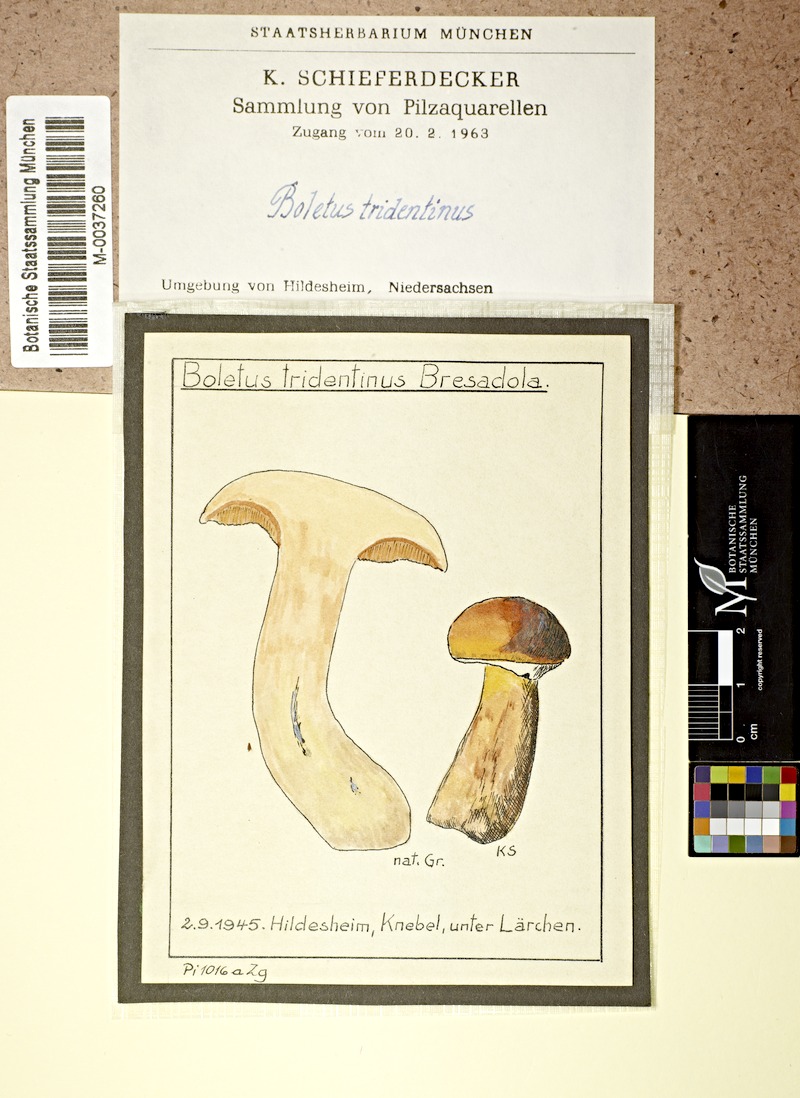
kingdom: Plantae
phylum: Tracheophyta
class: Pinopsida
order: Pinales
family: Pinaceae
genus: Larix
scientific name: Larix
